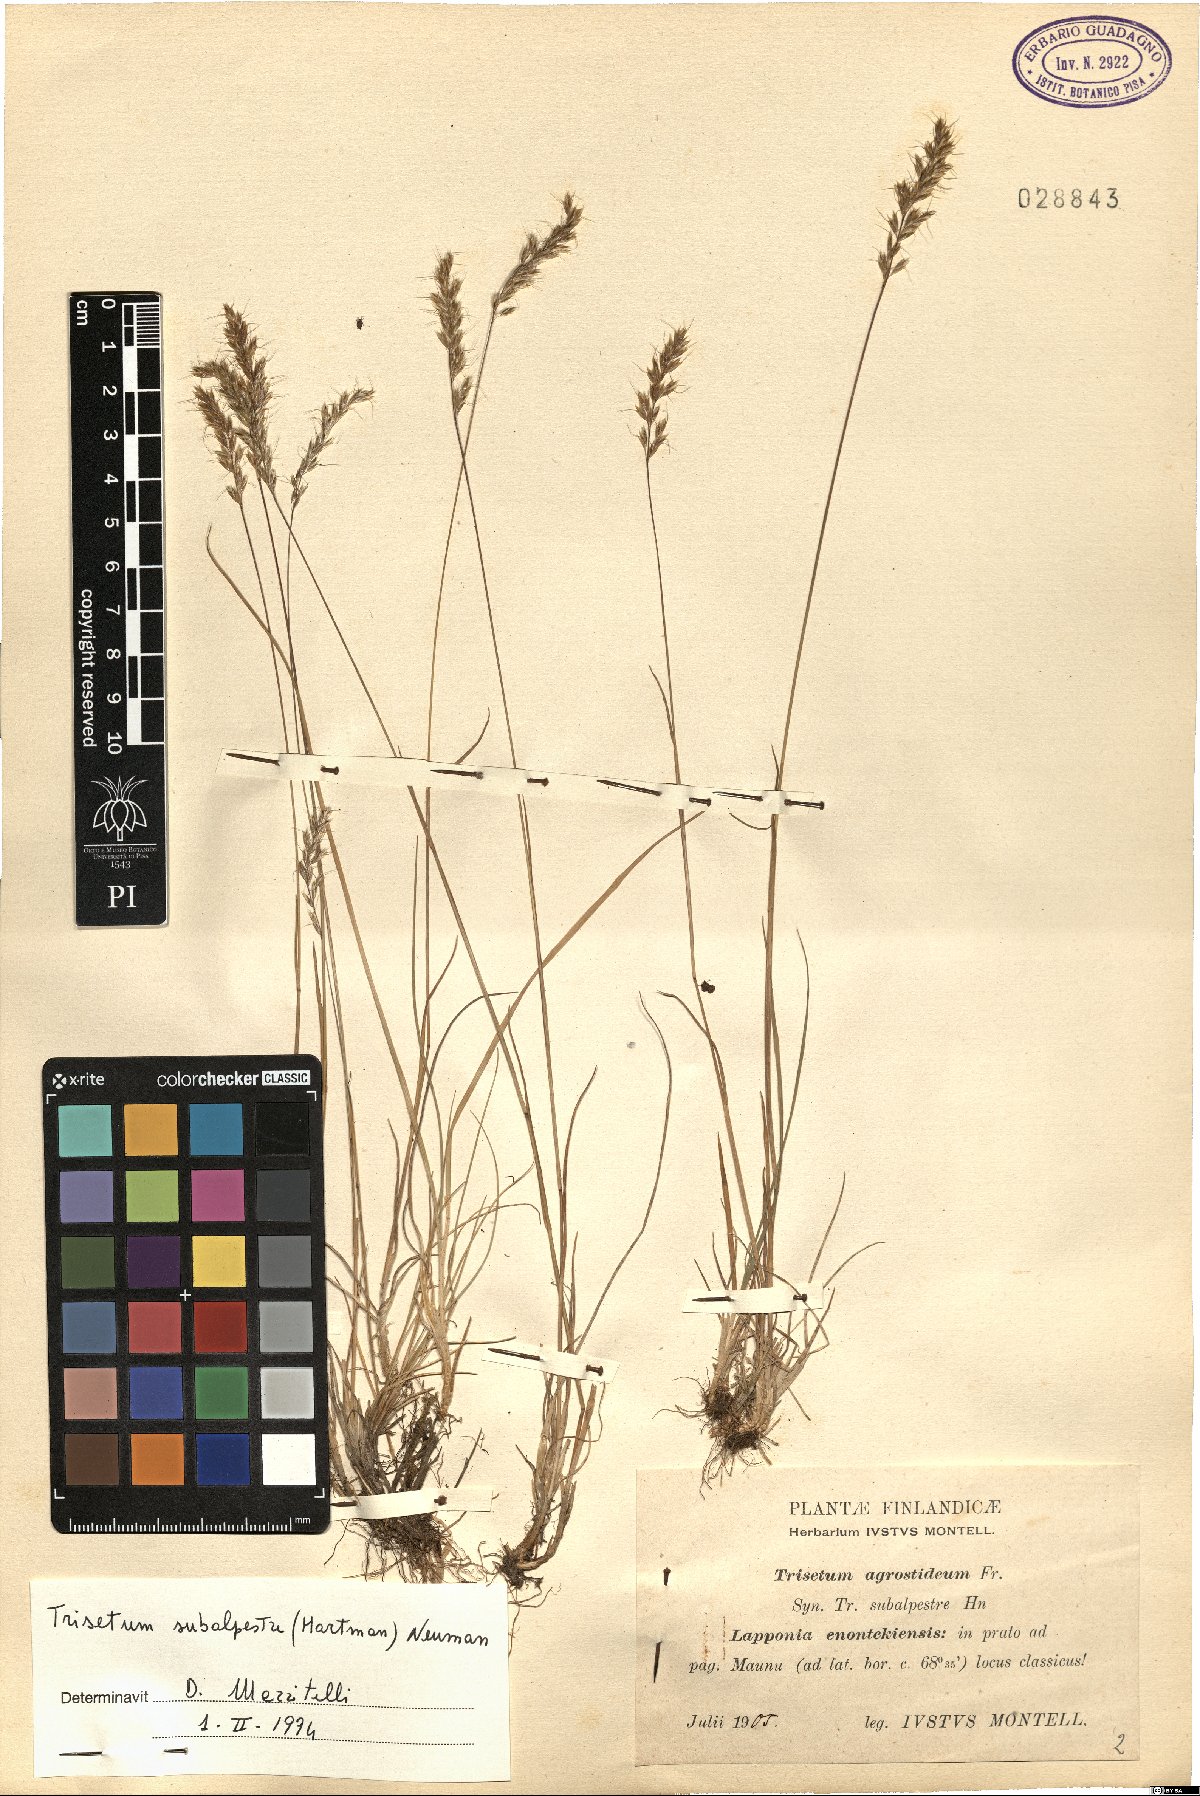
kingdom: Plantae
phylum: Tracheophyta
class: Liliopsida
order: Poales
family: Poaceae
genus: Koeleria
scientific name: Koeleria subalpestris
